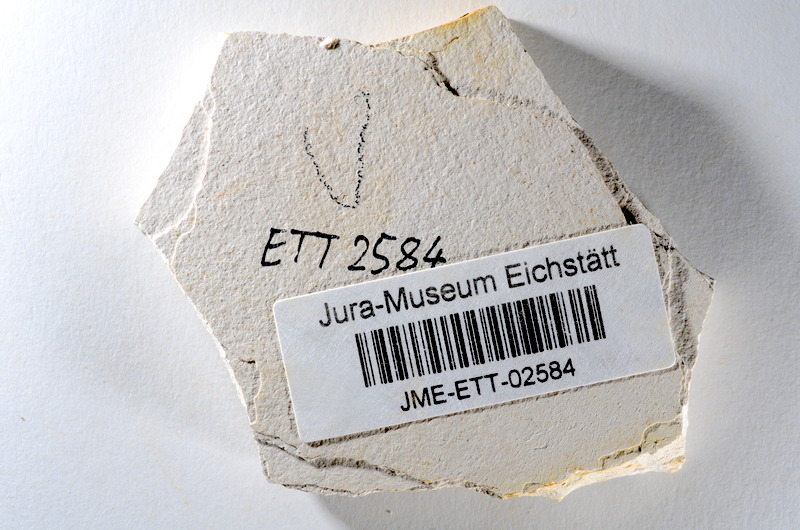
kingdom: Animalia
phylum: Chordata
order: Salmoniformes
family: Orthogonikleithridae
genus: Orthogonikleithrus
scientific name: Orthogonikleithrus hoelli
